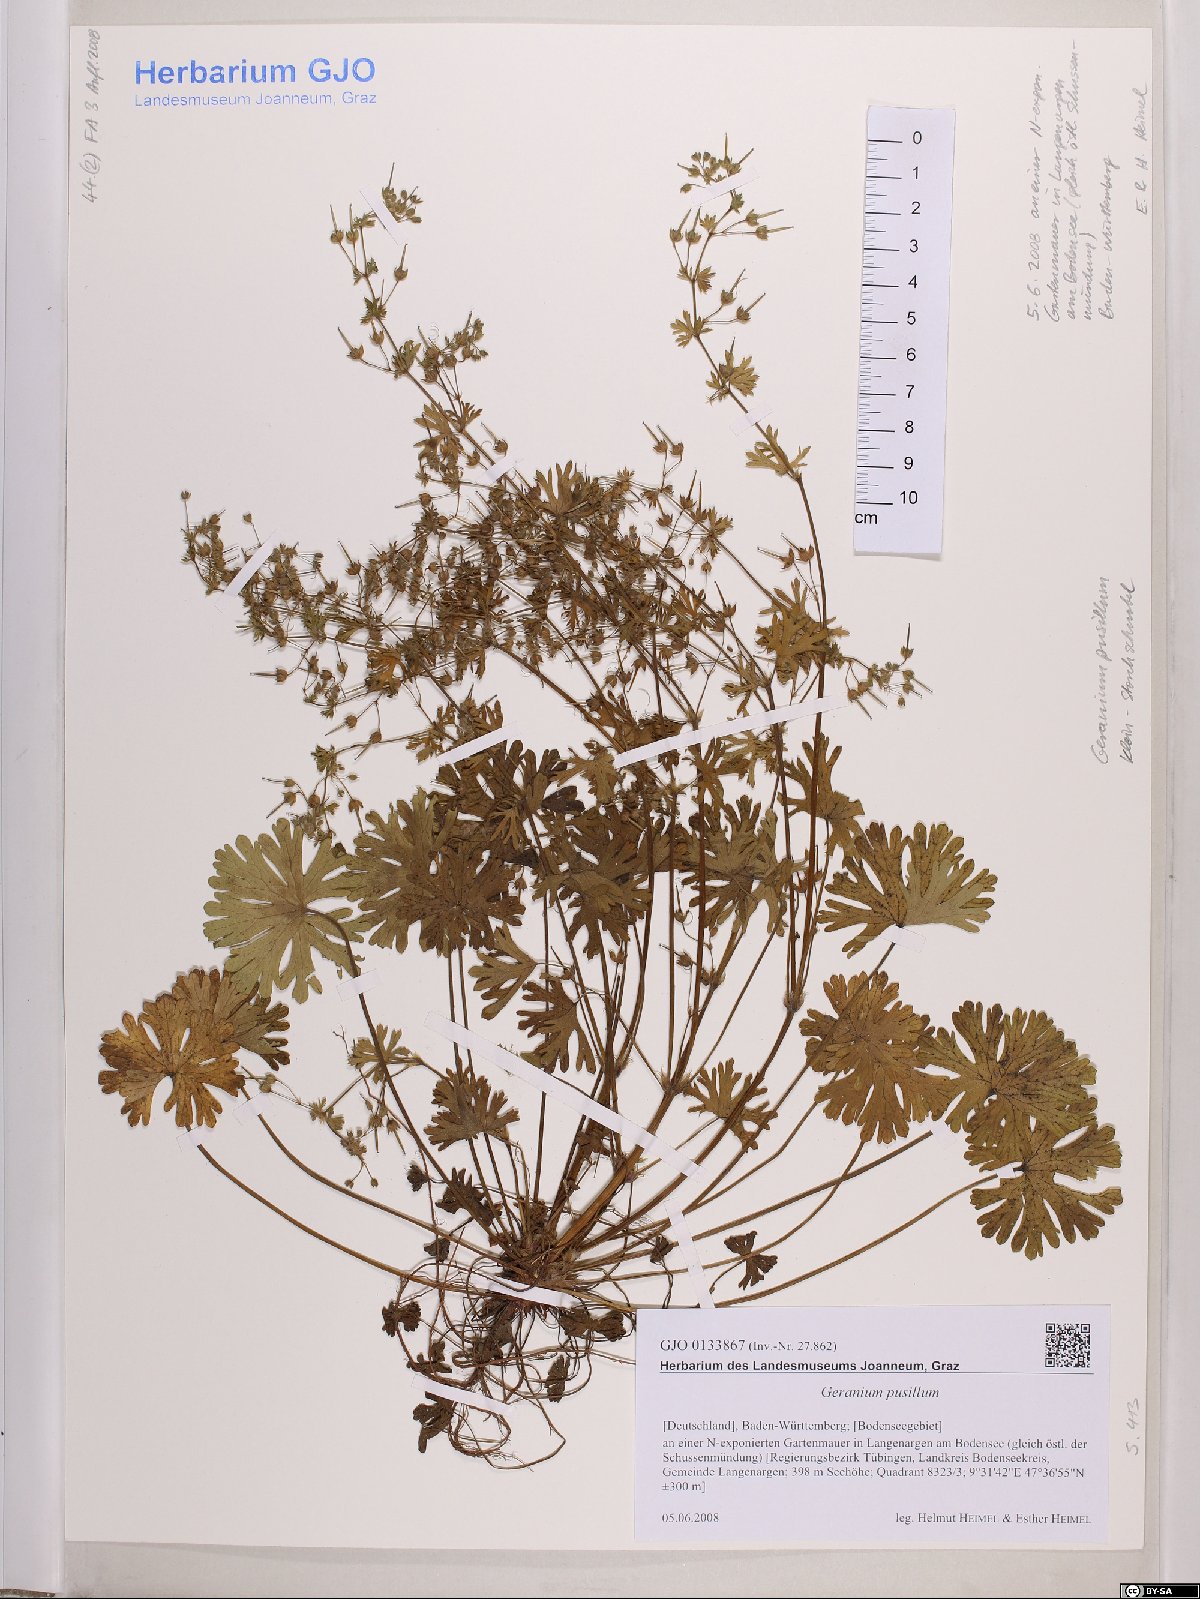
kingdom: Plantae
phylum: Tracheophyta
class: Magnoliopsida
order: Geraniales
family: Geraniaceae
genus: Geranium
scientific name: Geranium pusillum
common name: Small geranium
